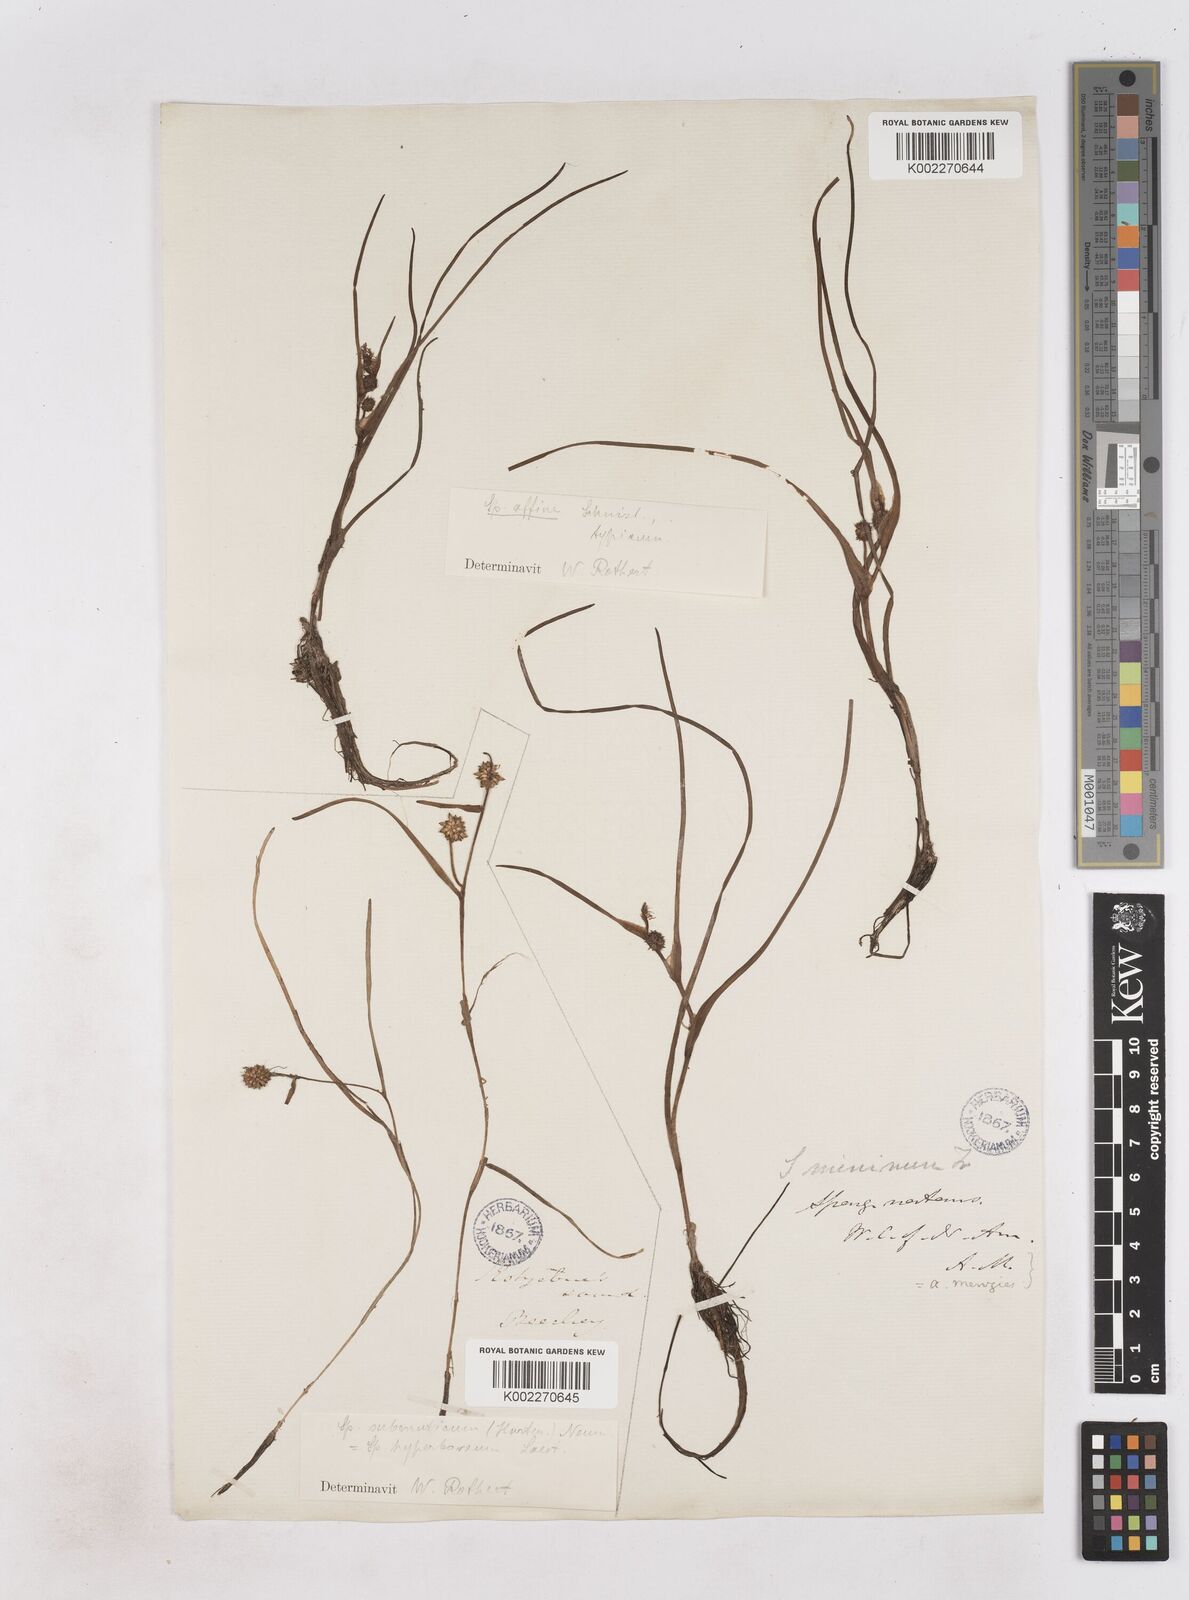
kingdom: Plantae
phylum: Tracheophyta
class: Liliopsida
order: Poales
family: Typhaceae
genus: Sparganium
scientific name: Sparganium hyperboreum
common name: Arctic burreed
